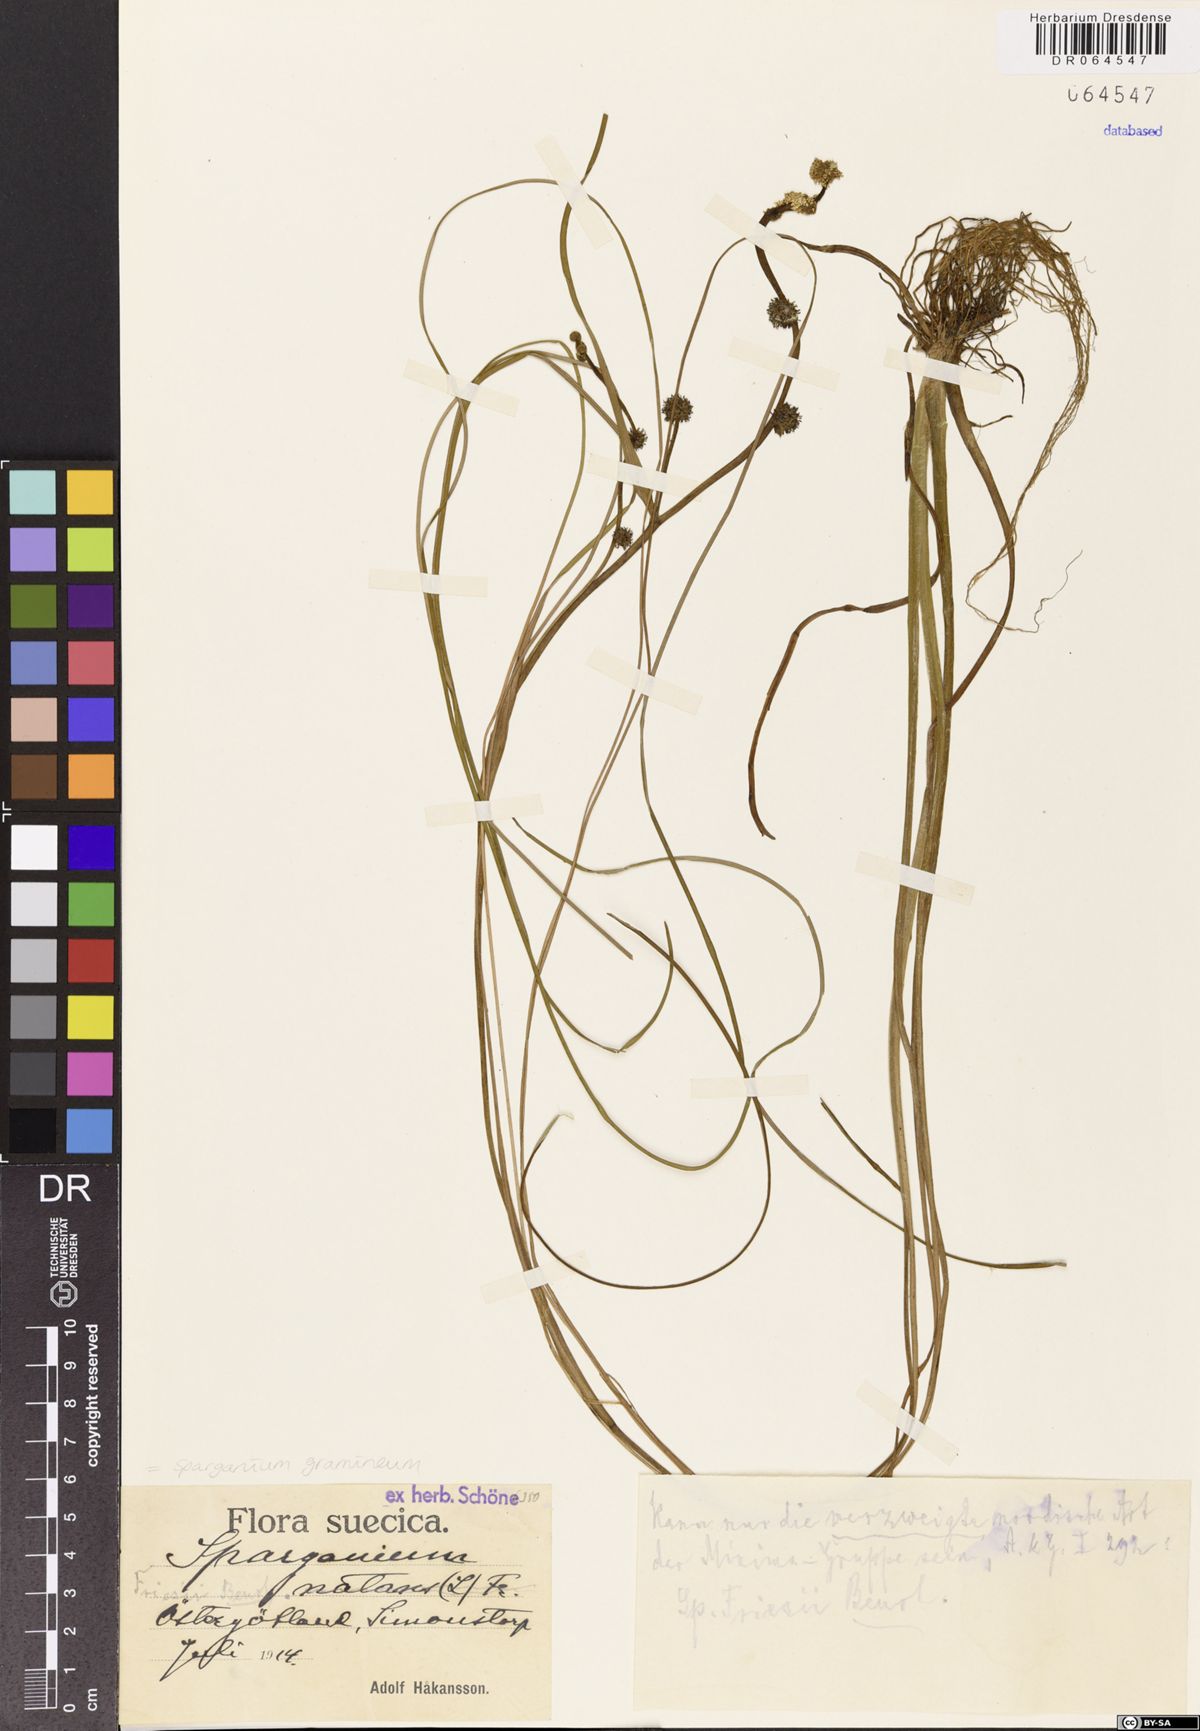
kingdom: Plantae
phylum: Tracheophyta
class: Liliopsida
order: Poales
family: Typhaceae
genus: Sparganium
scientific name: Sparganium gramineum
